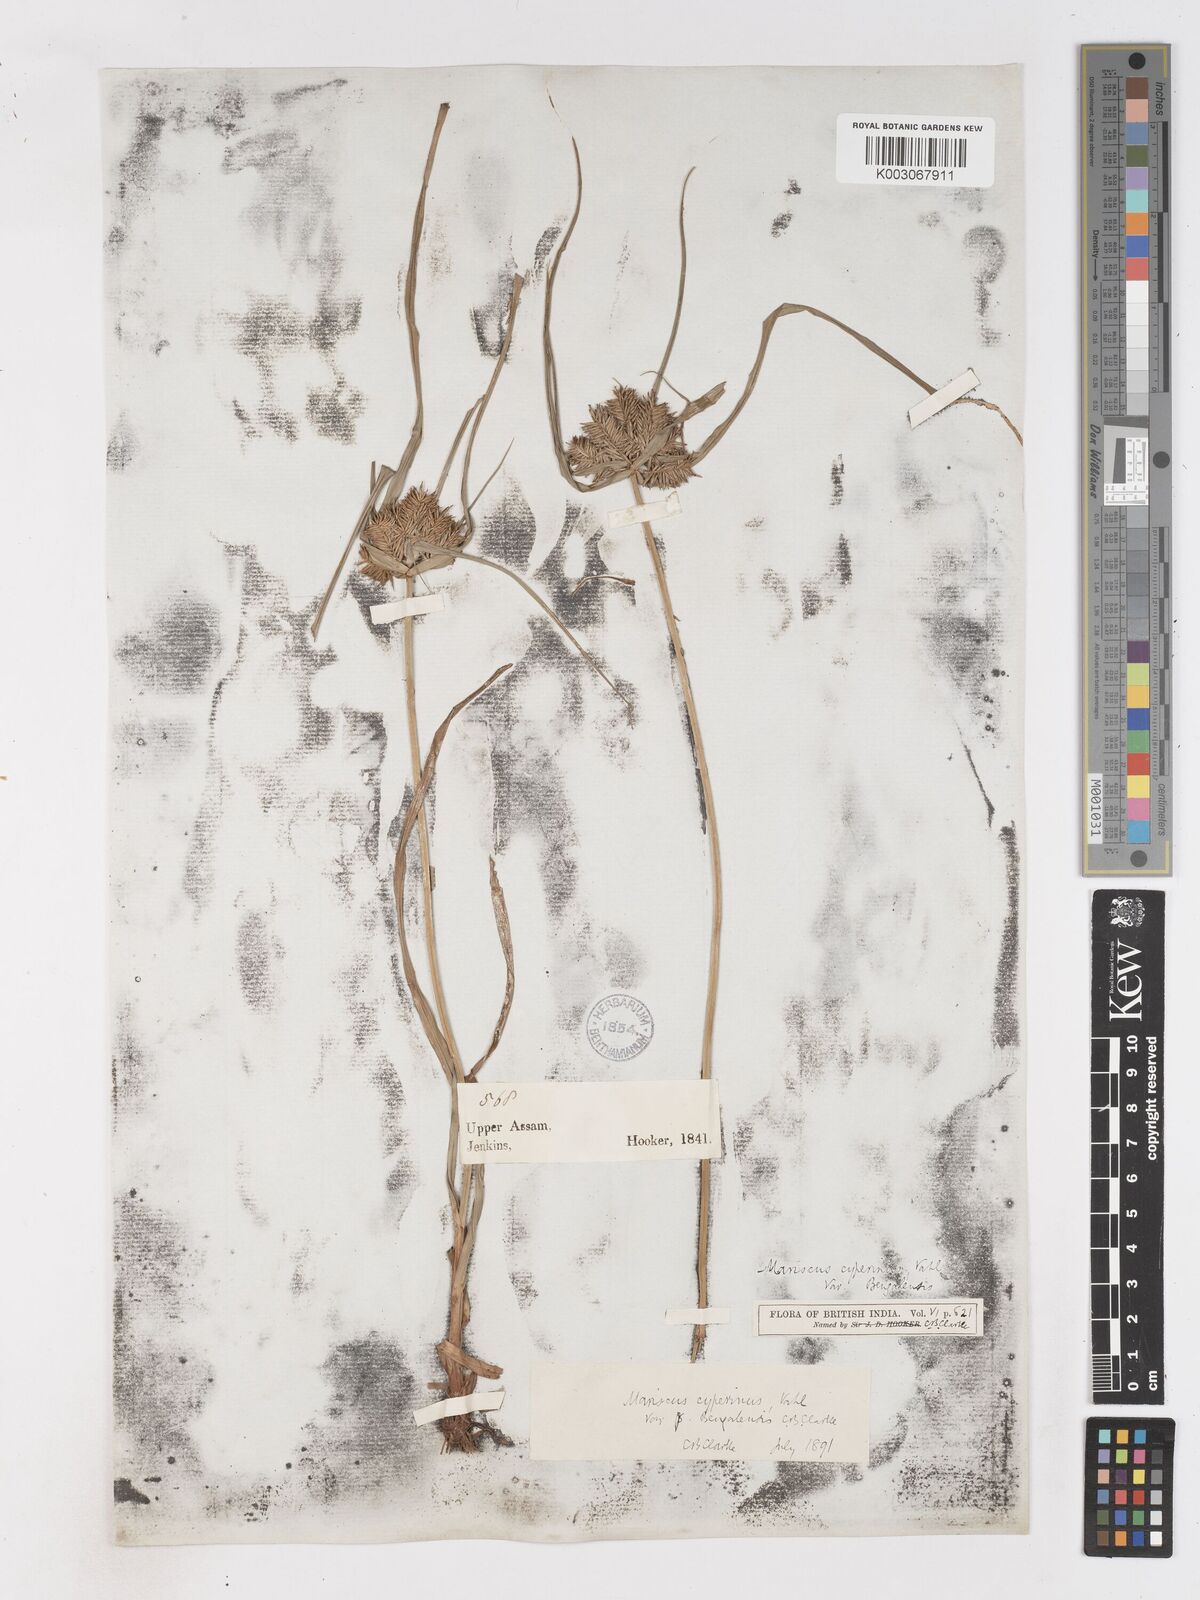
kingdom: Plantae
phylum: Tracheophyta
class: Liliopsida
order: Poales
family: Cyperaceae
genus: Cyperus
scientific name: Cyperus cyperinus
